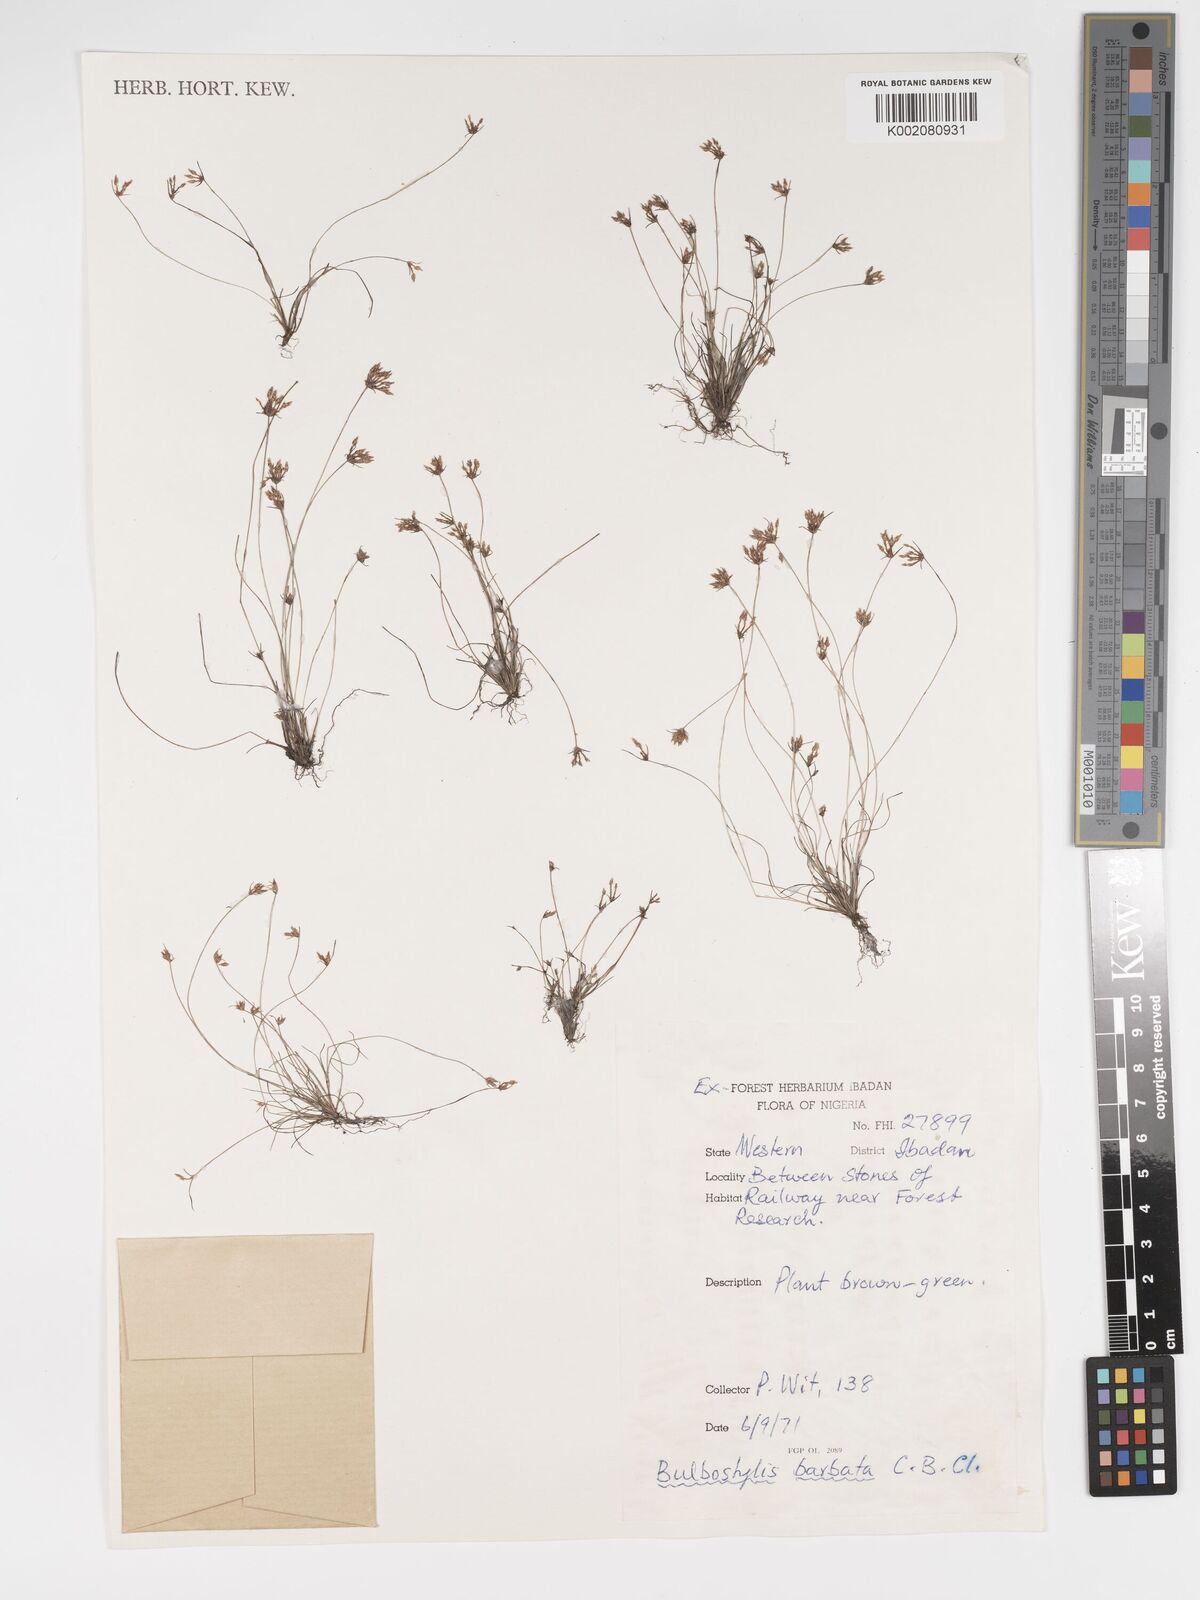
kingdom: Plantae
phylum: Tracheophyta
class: Liliopsida
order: Poales
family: Cyperaceae
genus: Bulbostylis
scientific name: Bulbostylis barbata
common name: Watergrass
